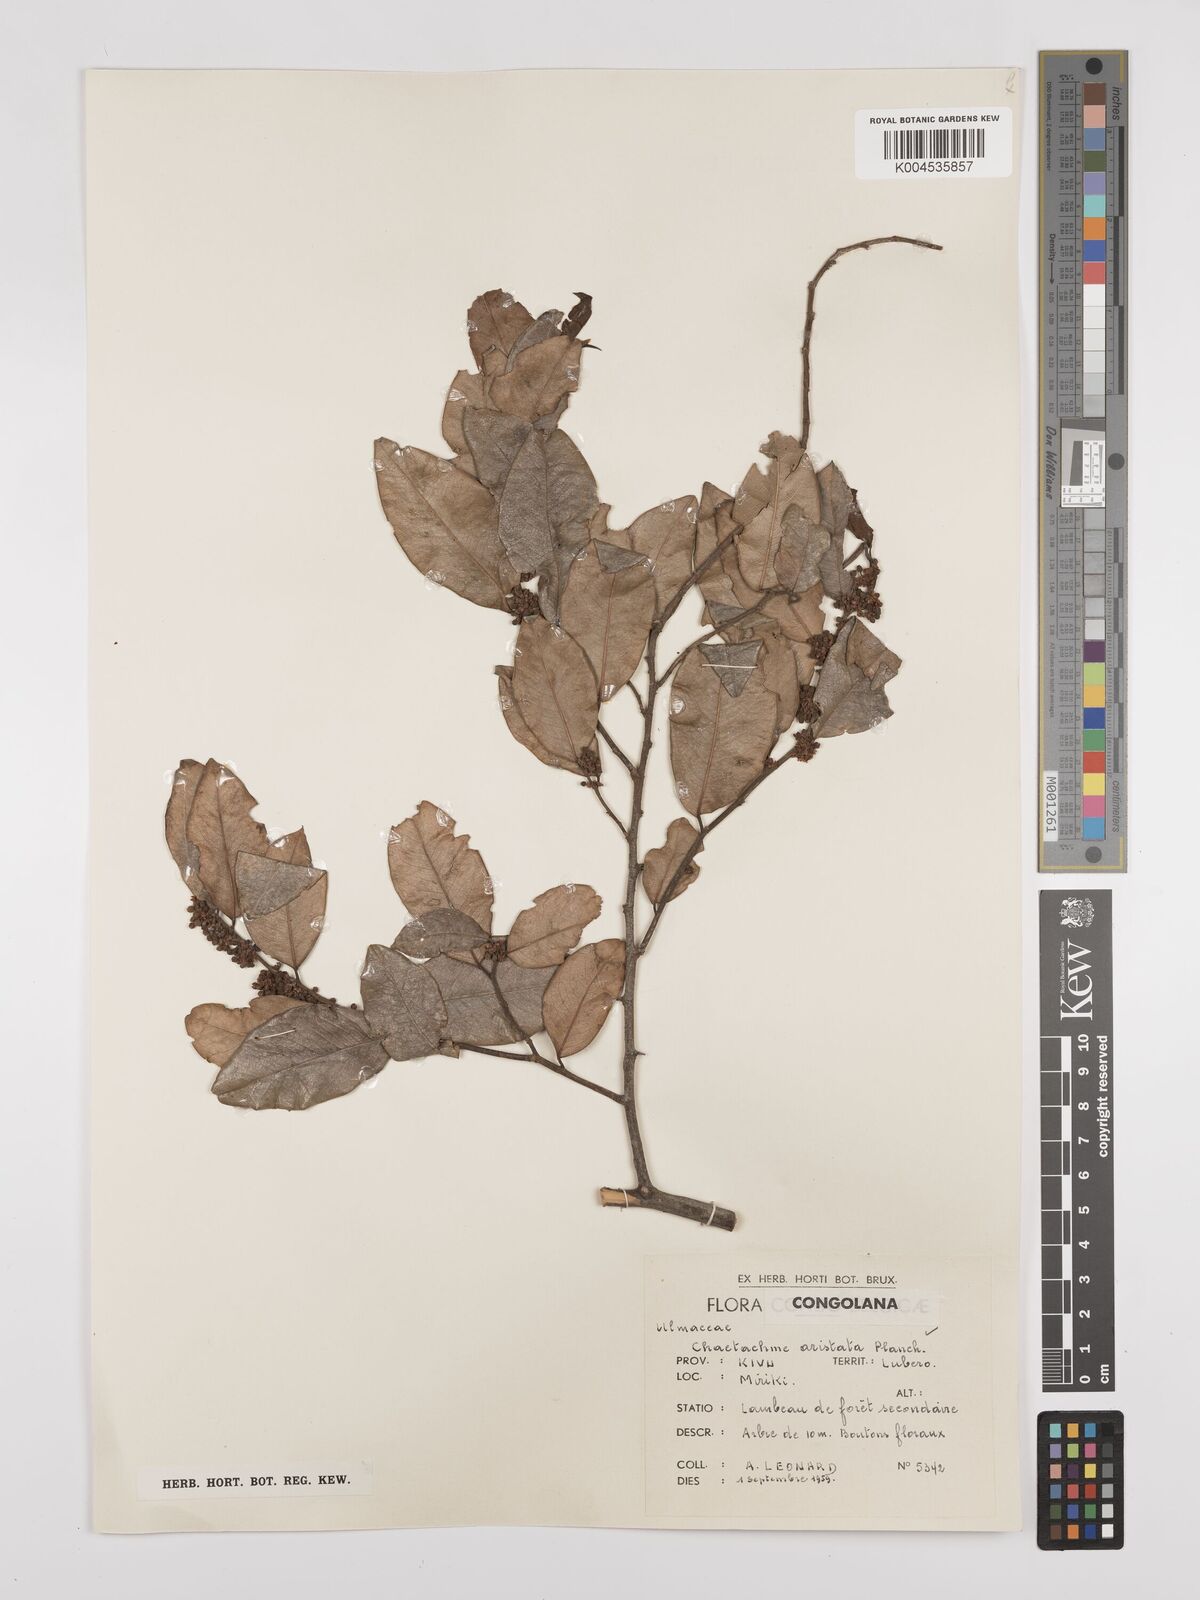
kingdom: Plantae
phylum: Tracheophyta
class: Magnoliopsida
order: Rosales
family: Cannabaceae
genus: Chaetachme
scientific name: Chaetachme aristata
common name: Thorny elm
